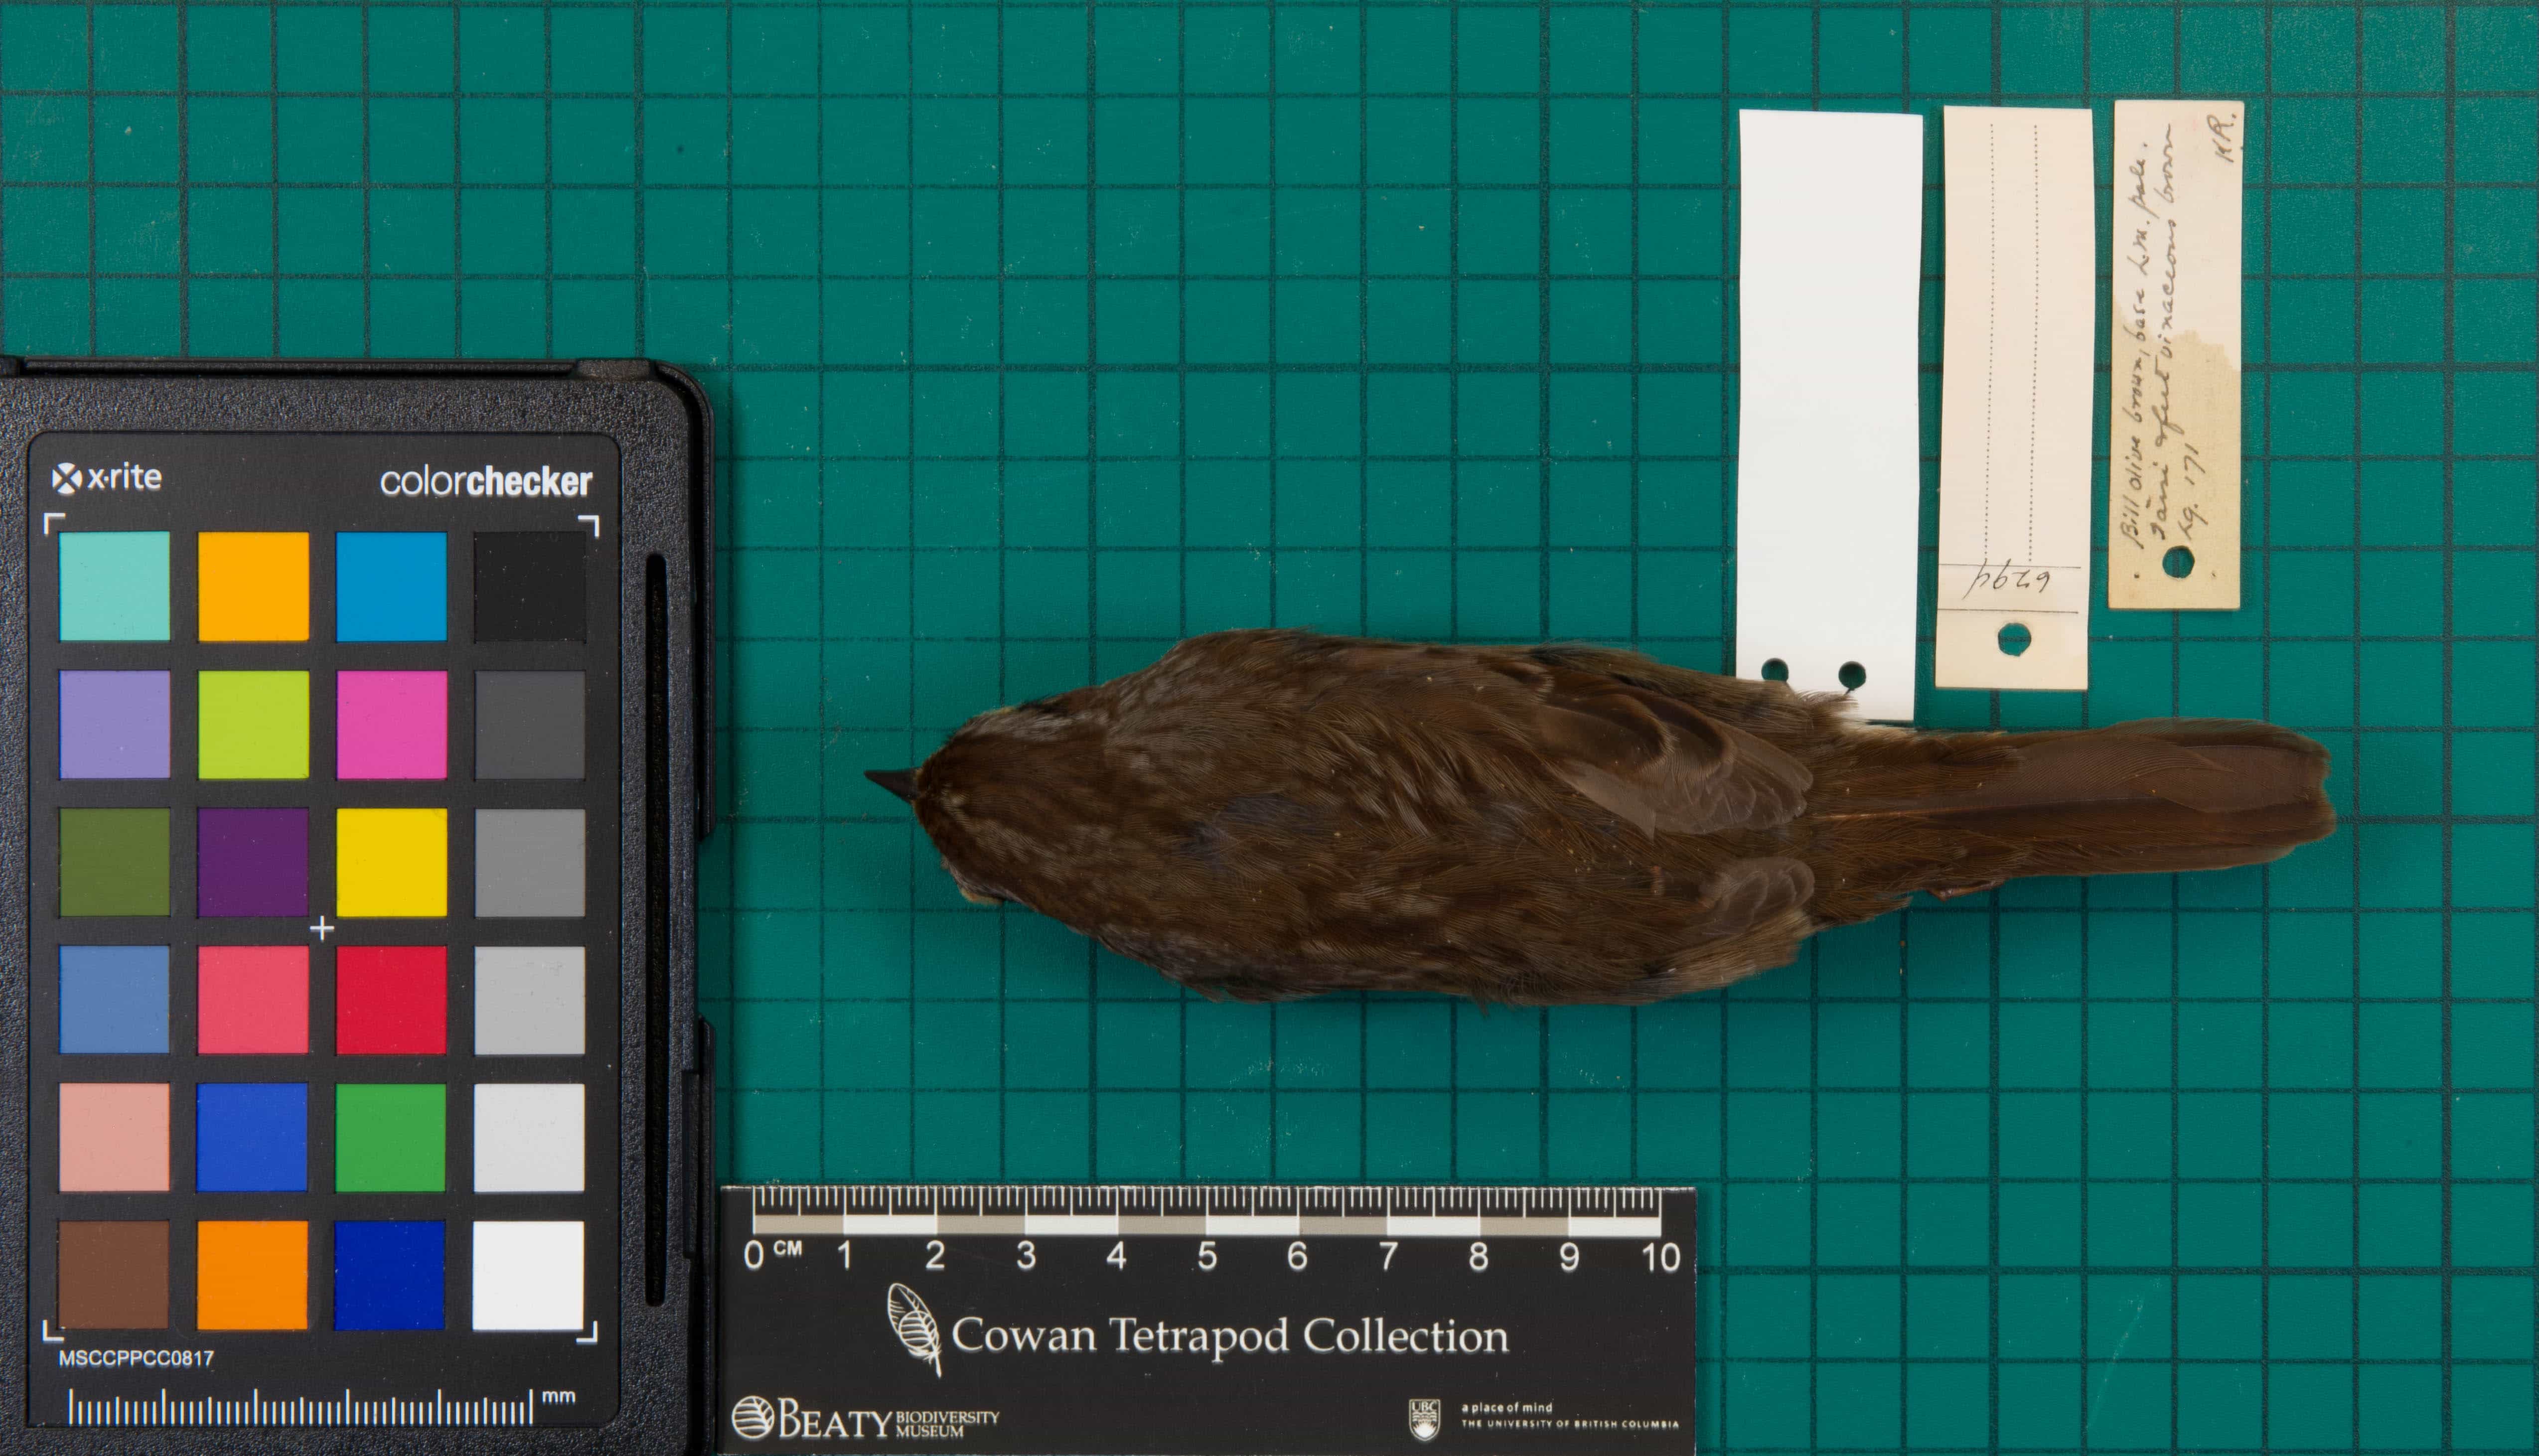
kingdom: Animalia
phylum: Chordata
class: Aves
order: Passeriformes
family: Passerellidae
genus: Melospiza
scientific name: Melospiza melodia
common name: Song Sparrow
